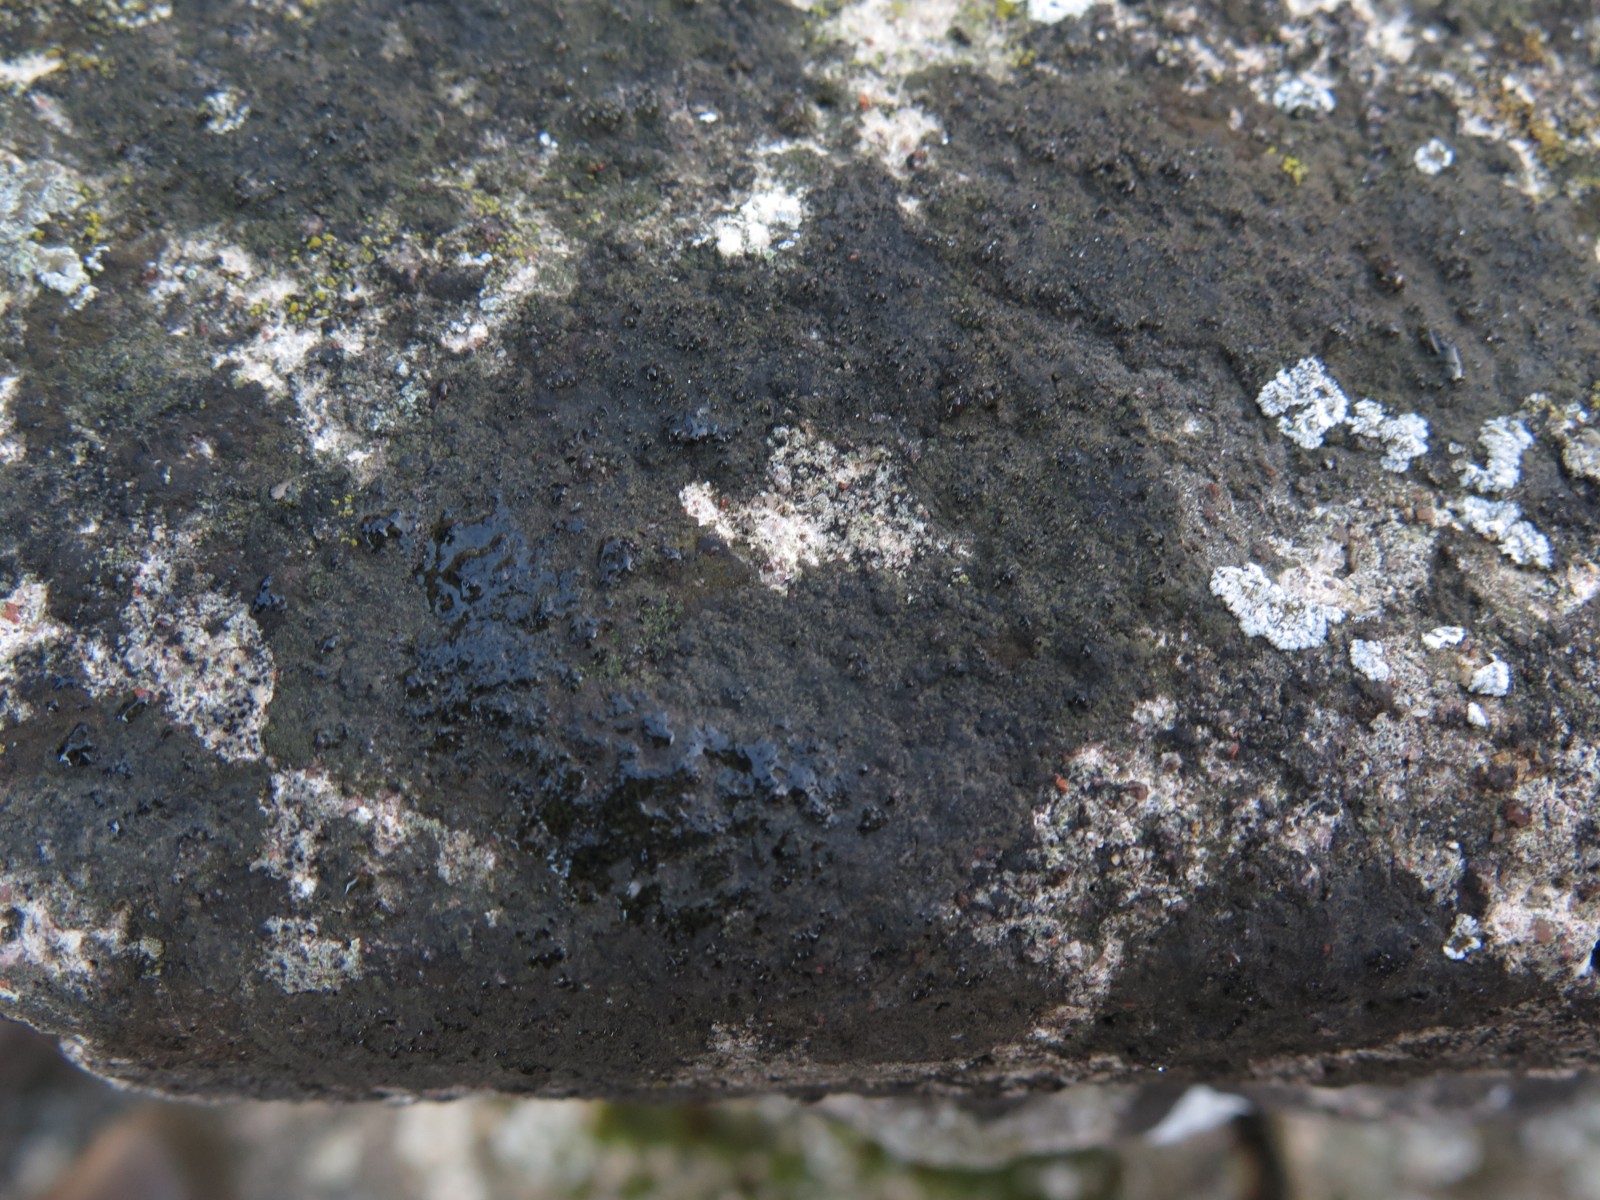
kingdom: Fungi
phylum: Ascomycota
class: Eurotiomycetes
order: Verrucariales
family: Verrucariaceae
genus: Verrucaria
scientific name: Verrucaria nigrescens
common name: sortbrun vortelav
